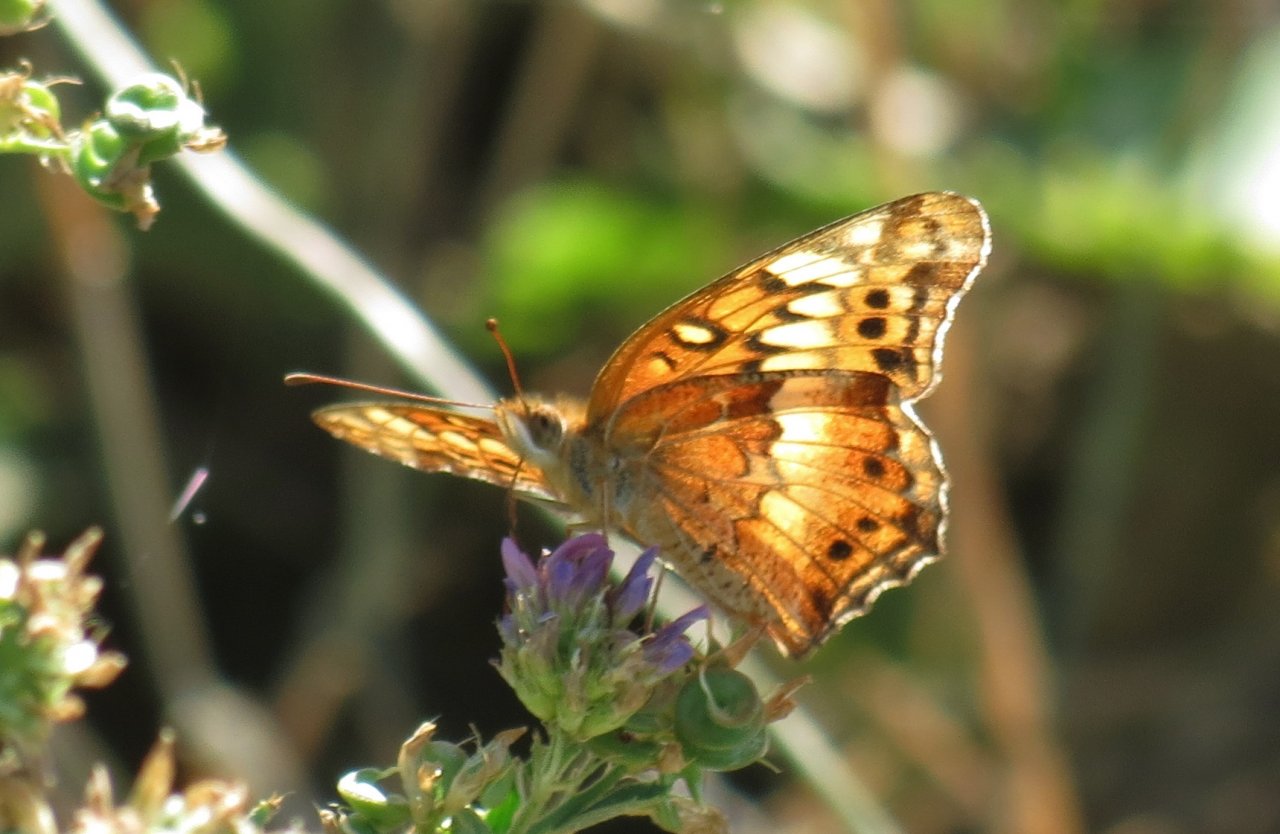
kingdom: Animalia
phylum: Arthropoda
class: Insecta
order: Lepidoptera
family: Nymphalidae
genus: Euptoieta
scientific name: Euptoieta claudia
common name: Variegated Fritillary
